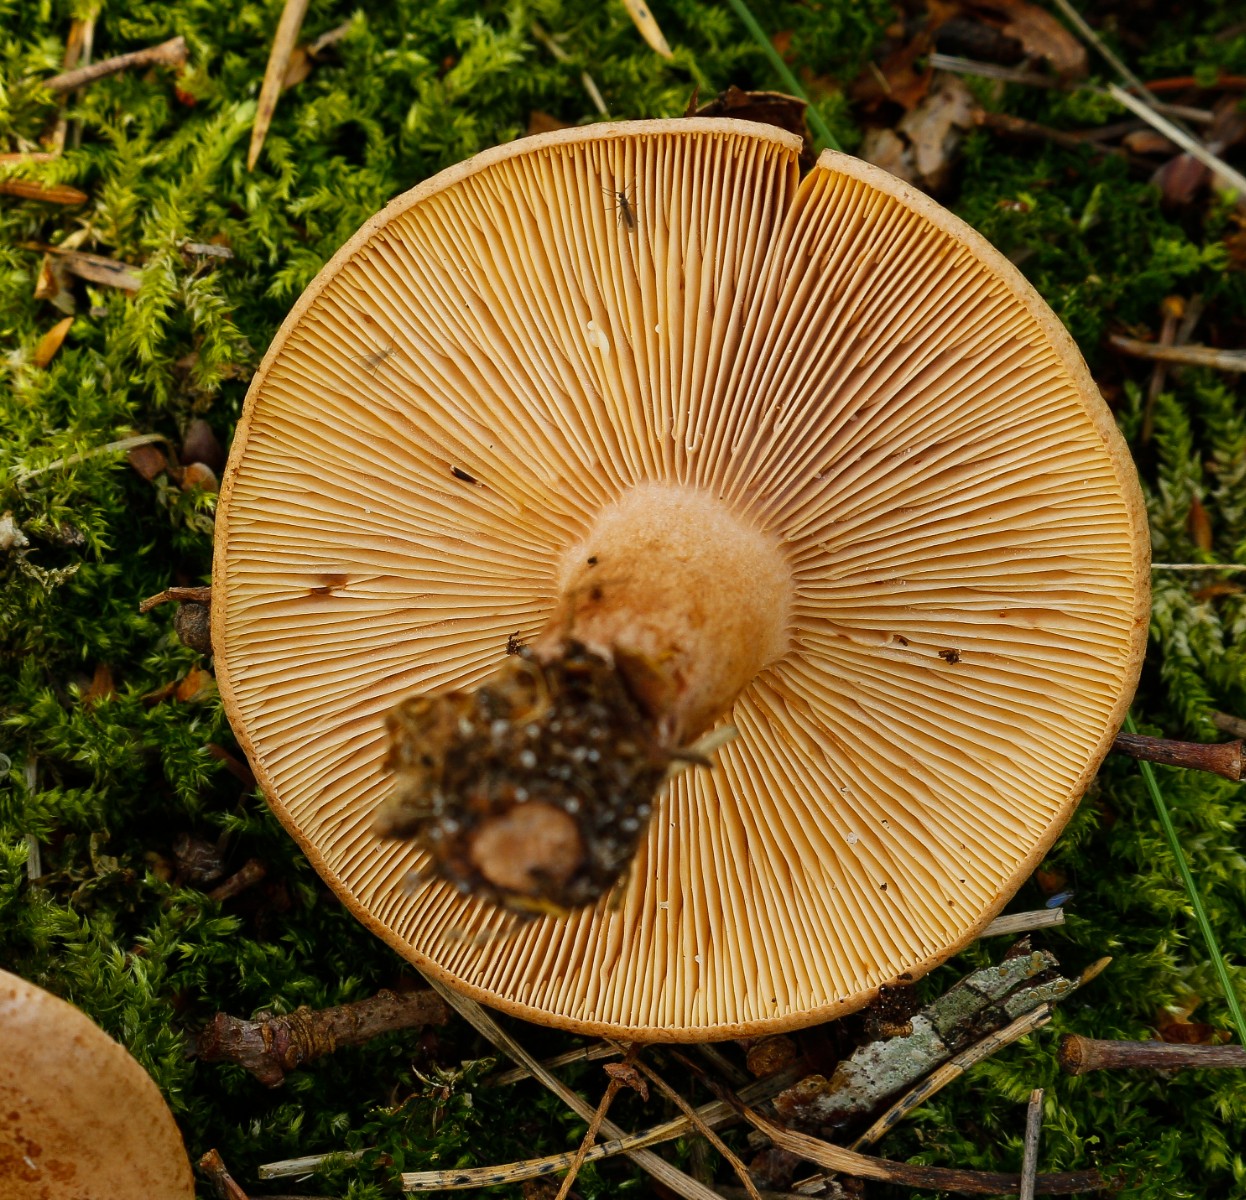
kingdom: Fungi
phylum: Basidiomycota
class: Agaricomycetes
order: Russulales
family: Russulaceae
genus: Lactarius
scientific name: Lactarius quietus
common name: ege-mælkehat
